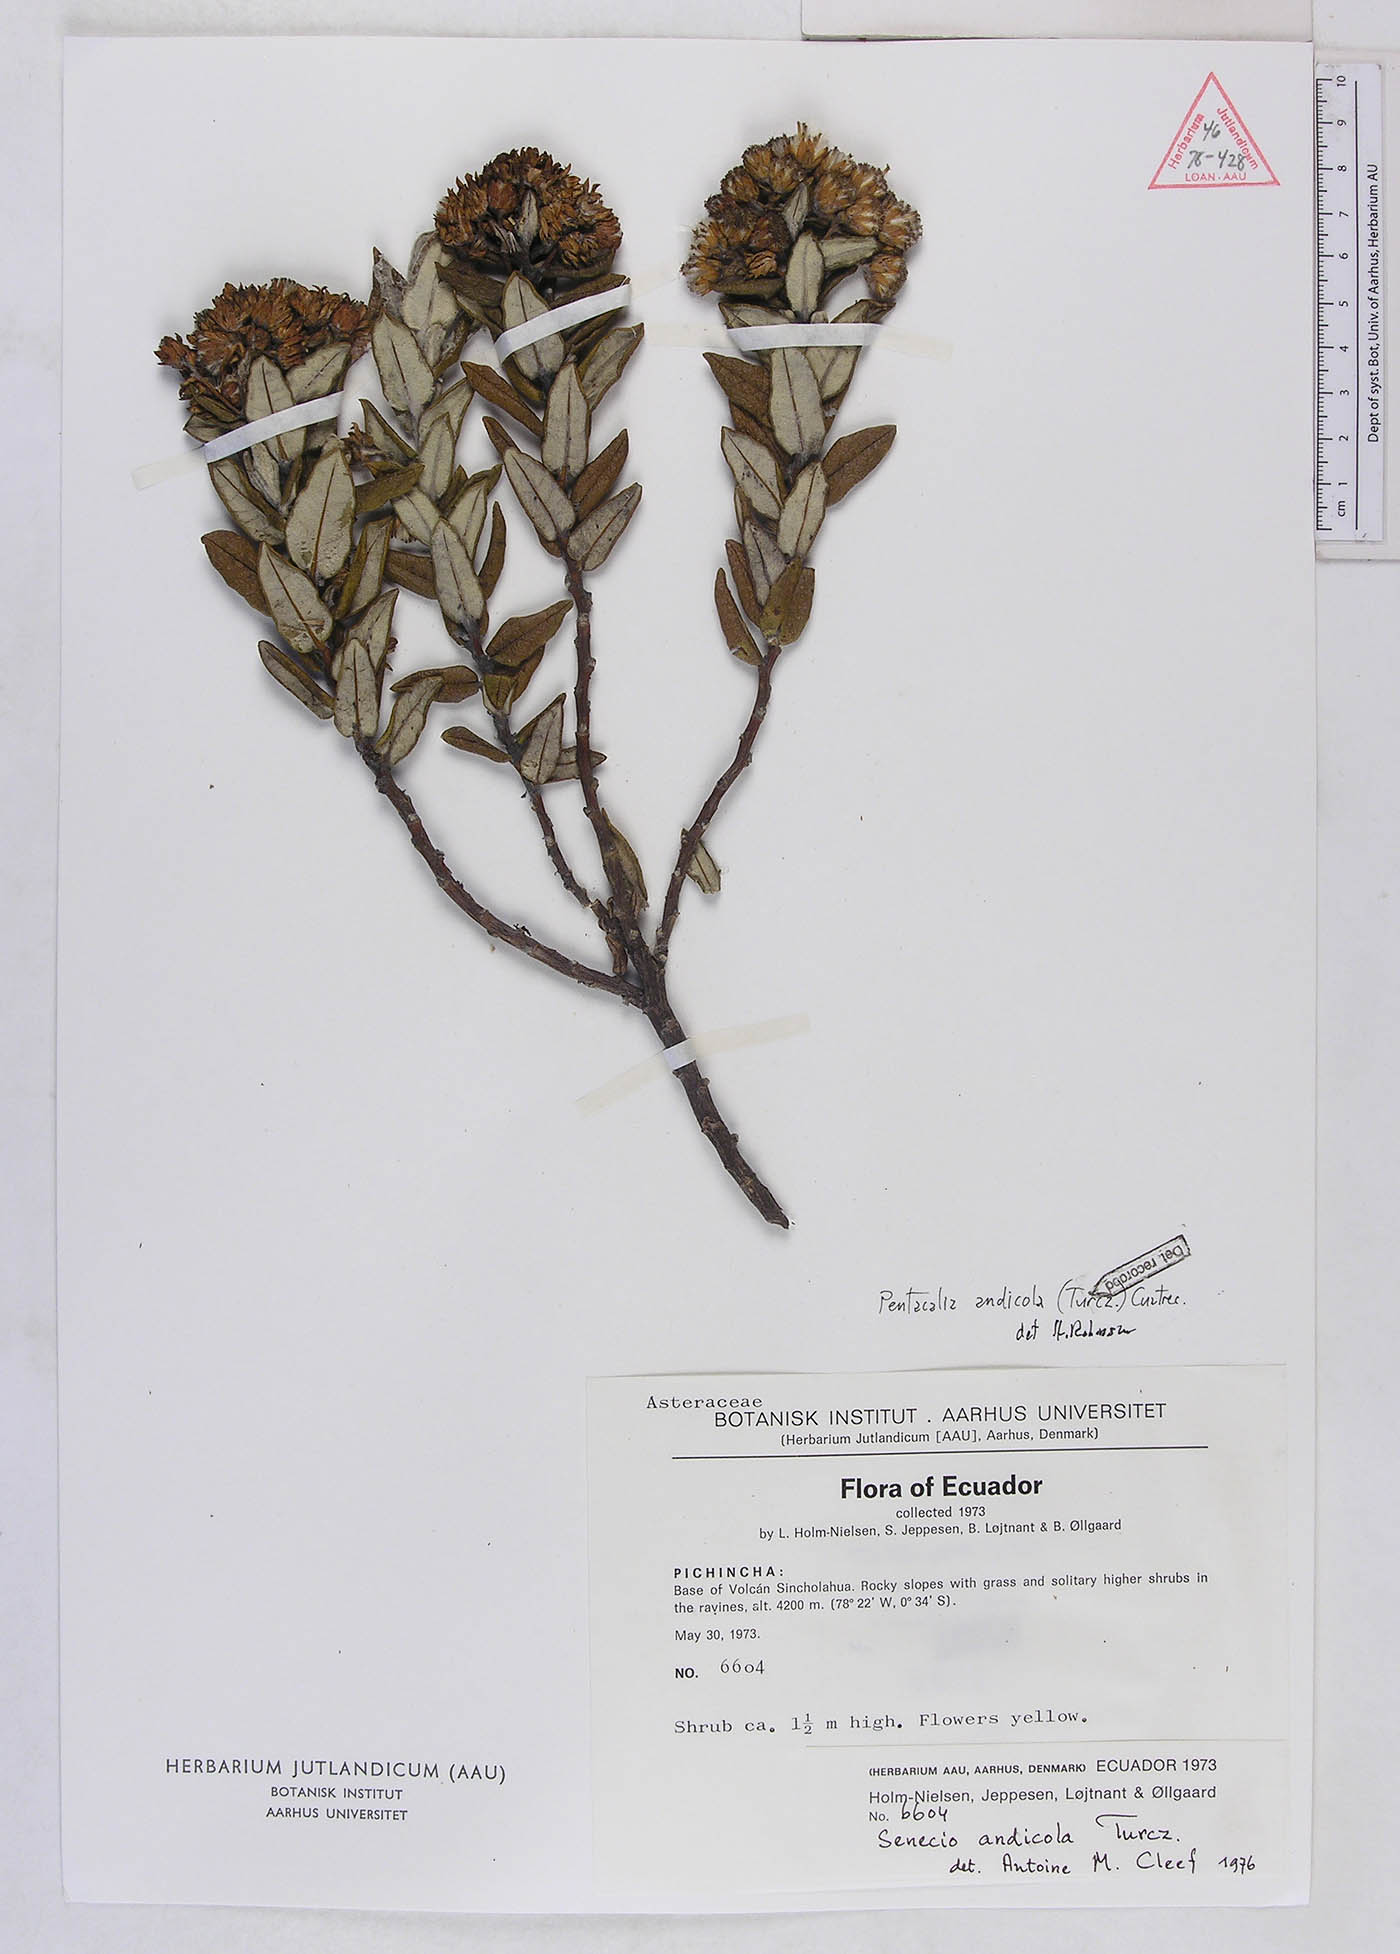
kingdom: Plantae
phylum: Tracheophyta
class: Magnoliopsida
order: Asterales
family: Asteraceae
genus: Monticalia
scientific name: Monticalia andicola
